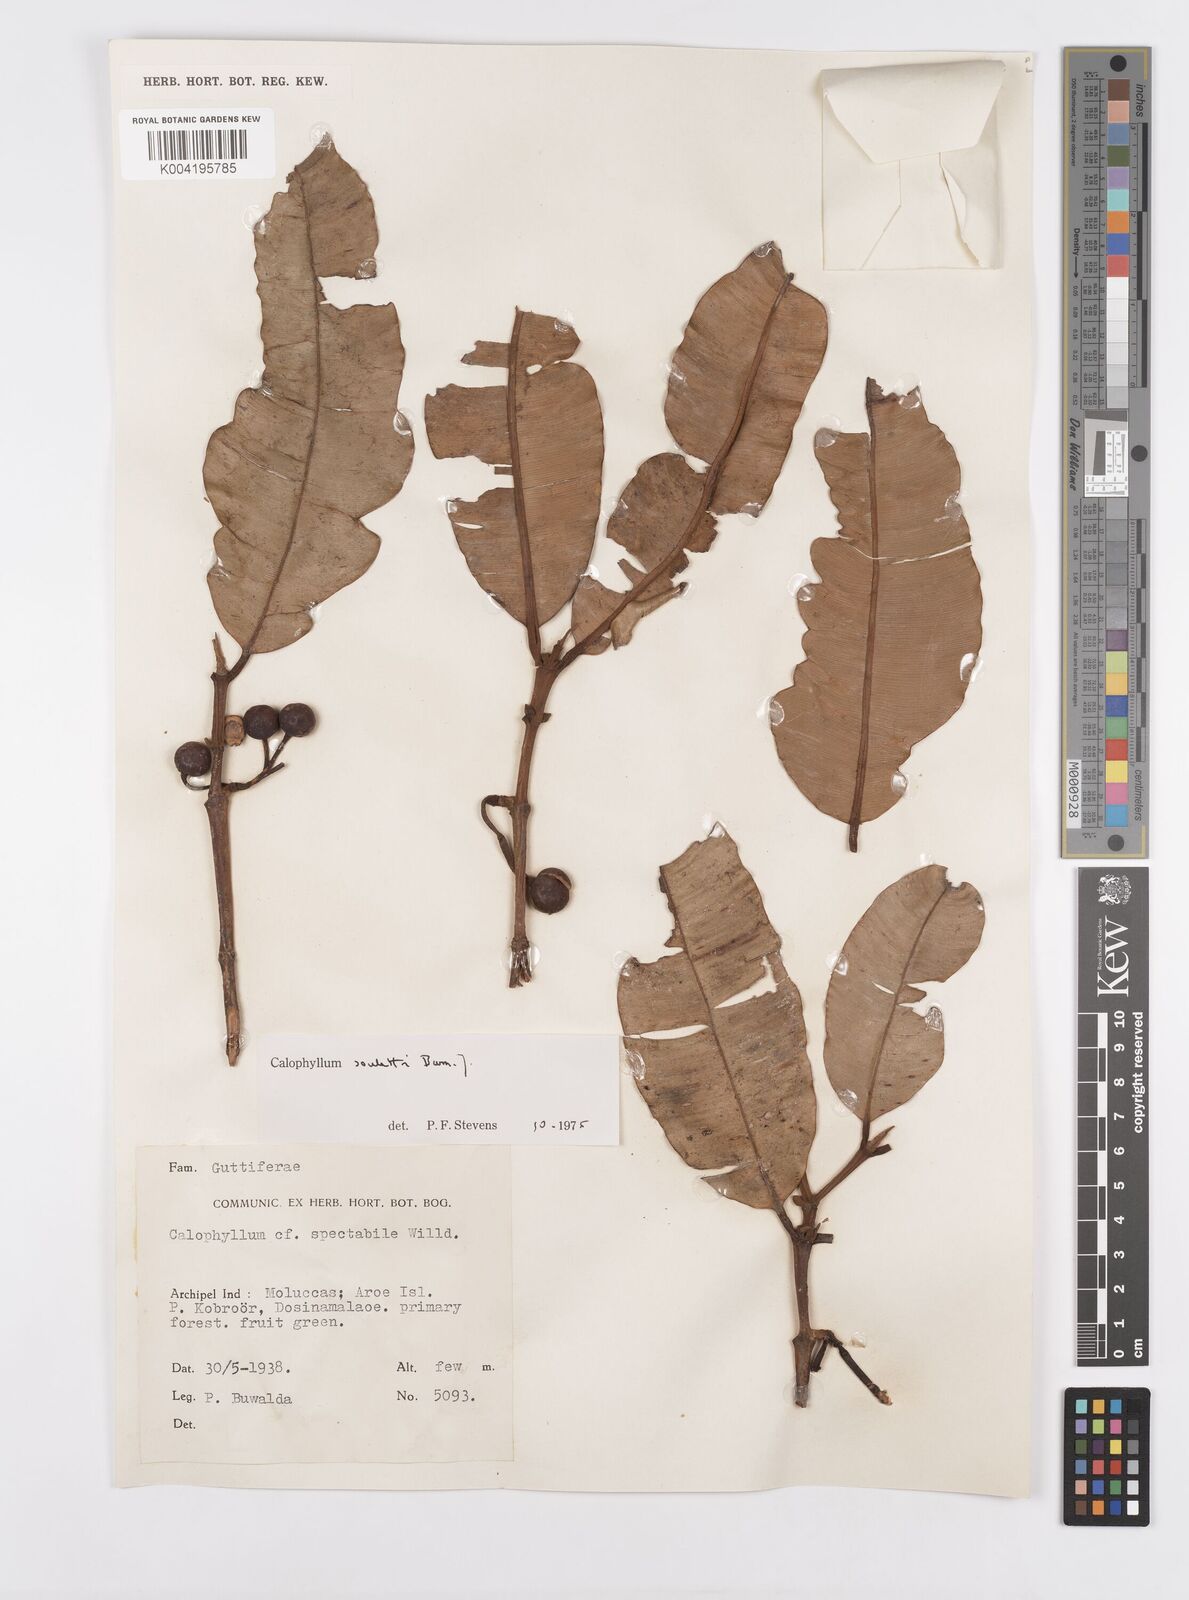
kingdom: Plantae
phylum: Tracheophyta
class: Magnoliopsida
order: Malpighiales
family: Calophyllaceae
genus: Calophyllum
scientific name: Calophyllum soulattri
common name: Bitangoor boonot
